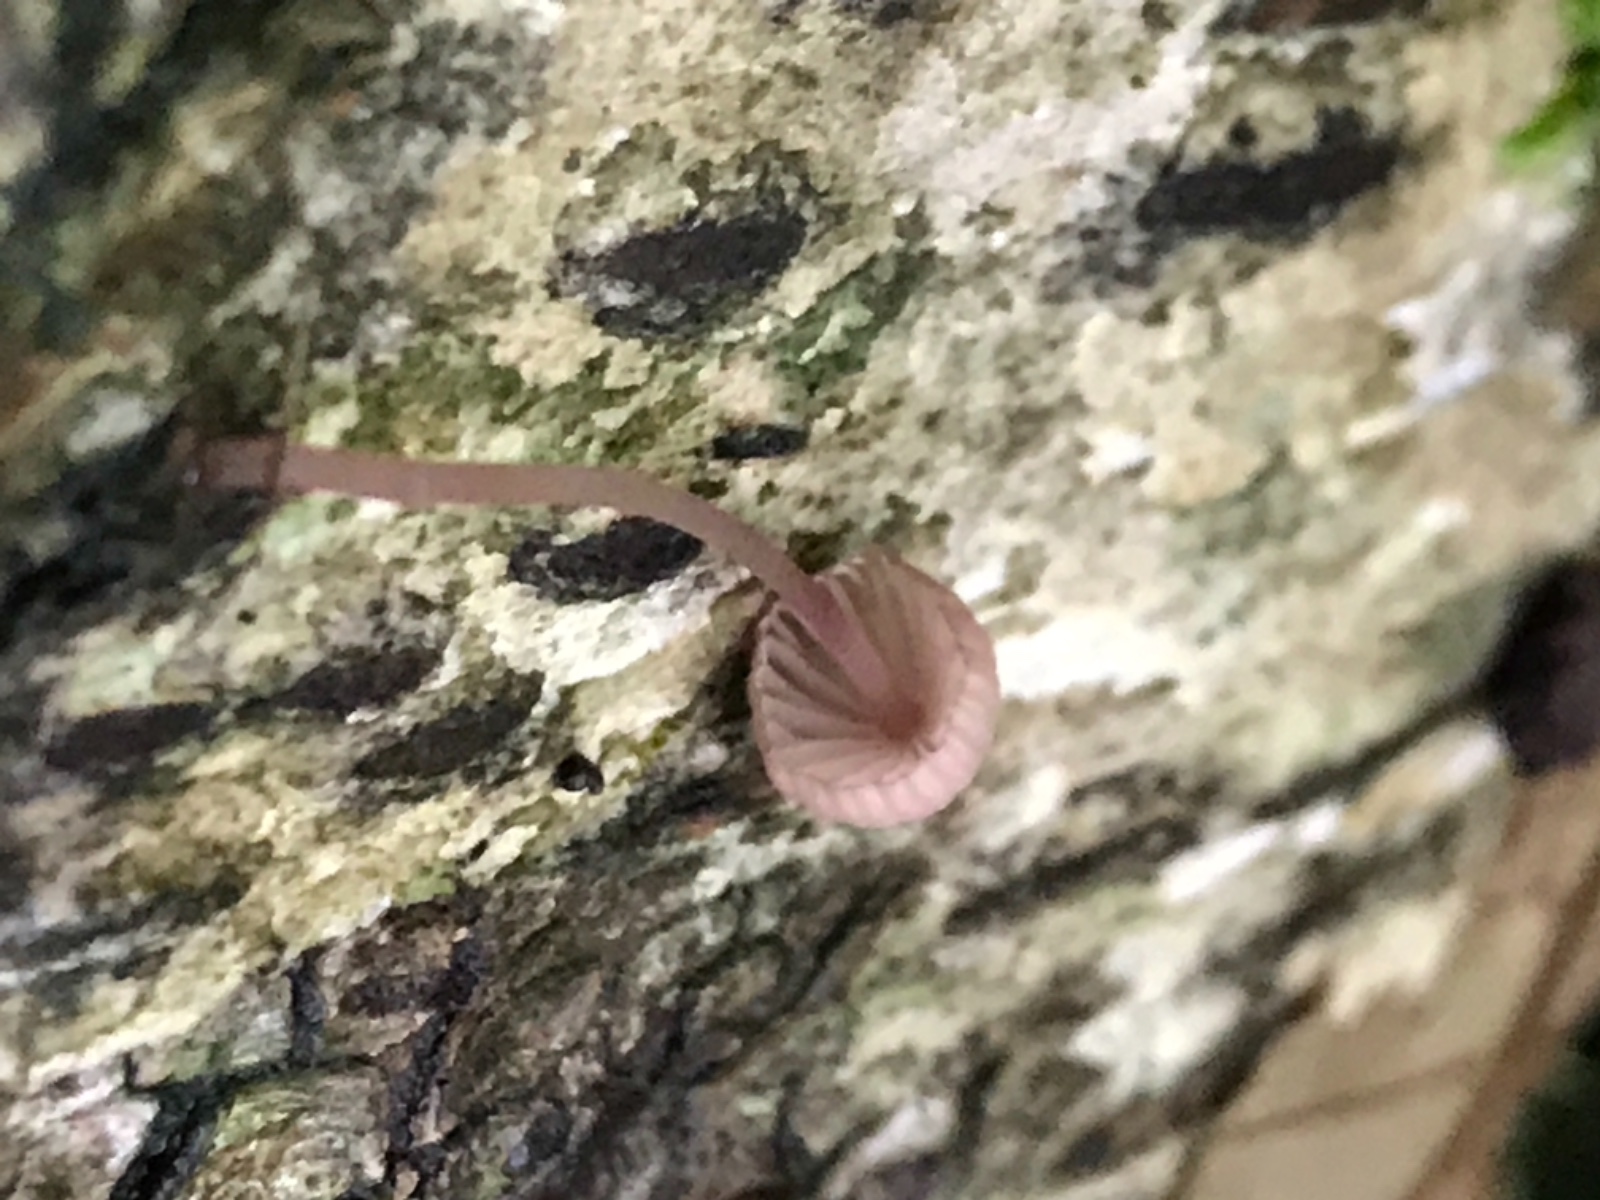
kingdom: Fungi
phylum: Basidiomycota
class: Agaricomycetes
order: Agaricales
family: Mycenaceae
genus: Mycena
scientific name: Mycena sanguinolenta
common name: rødmælket huesvamp
